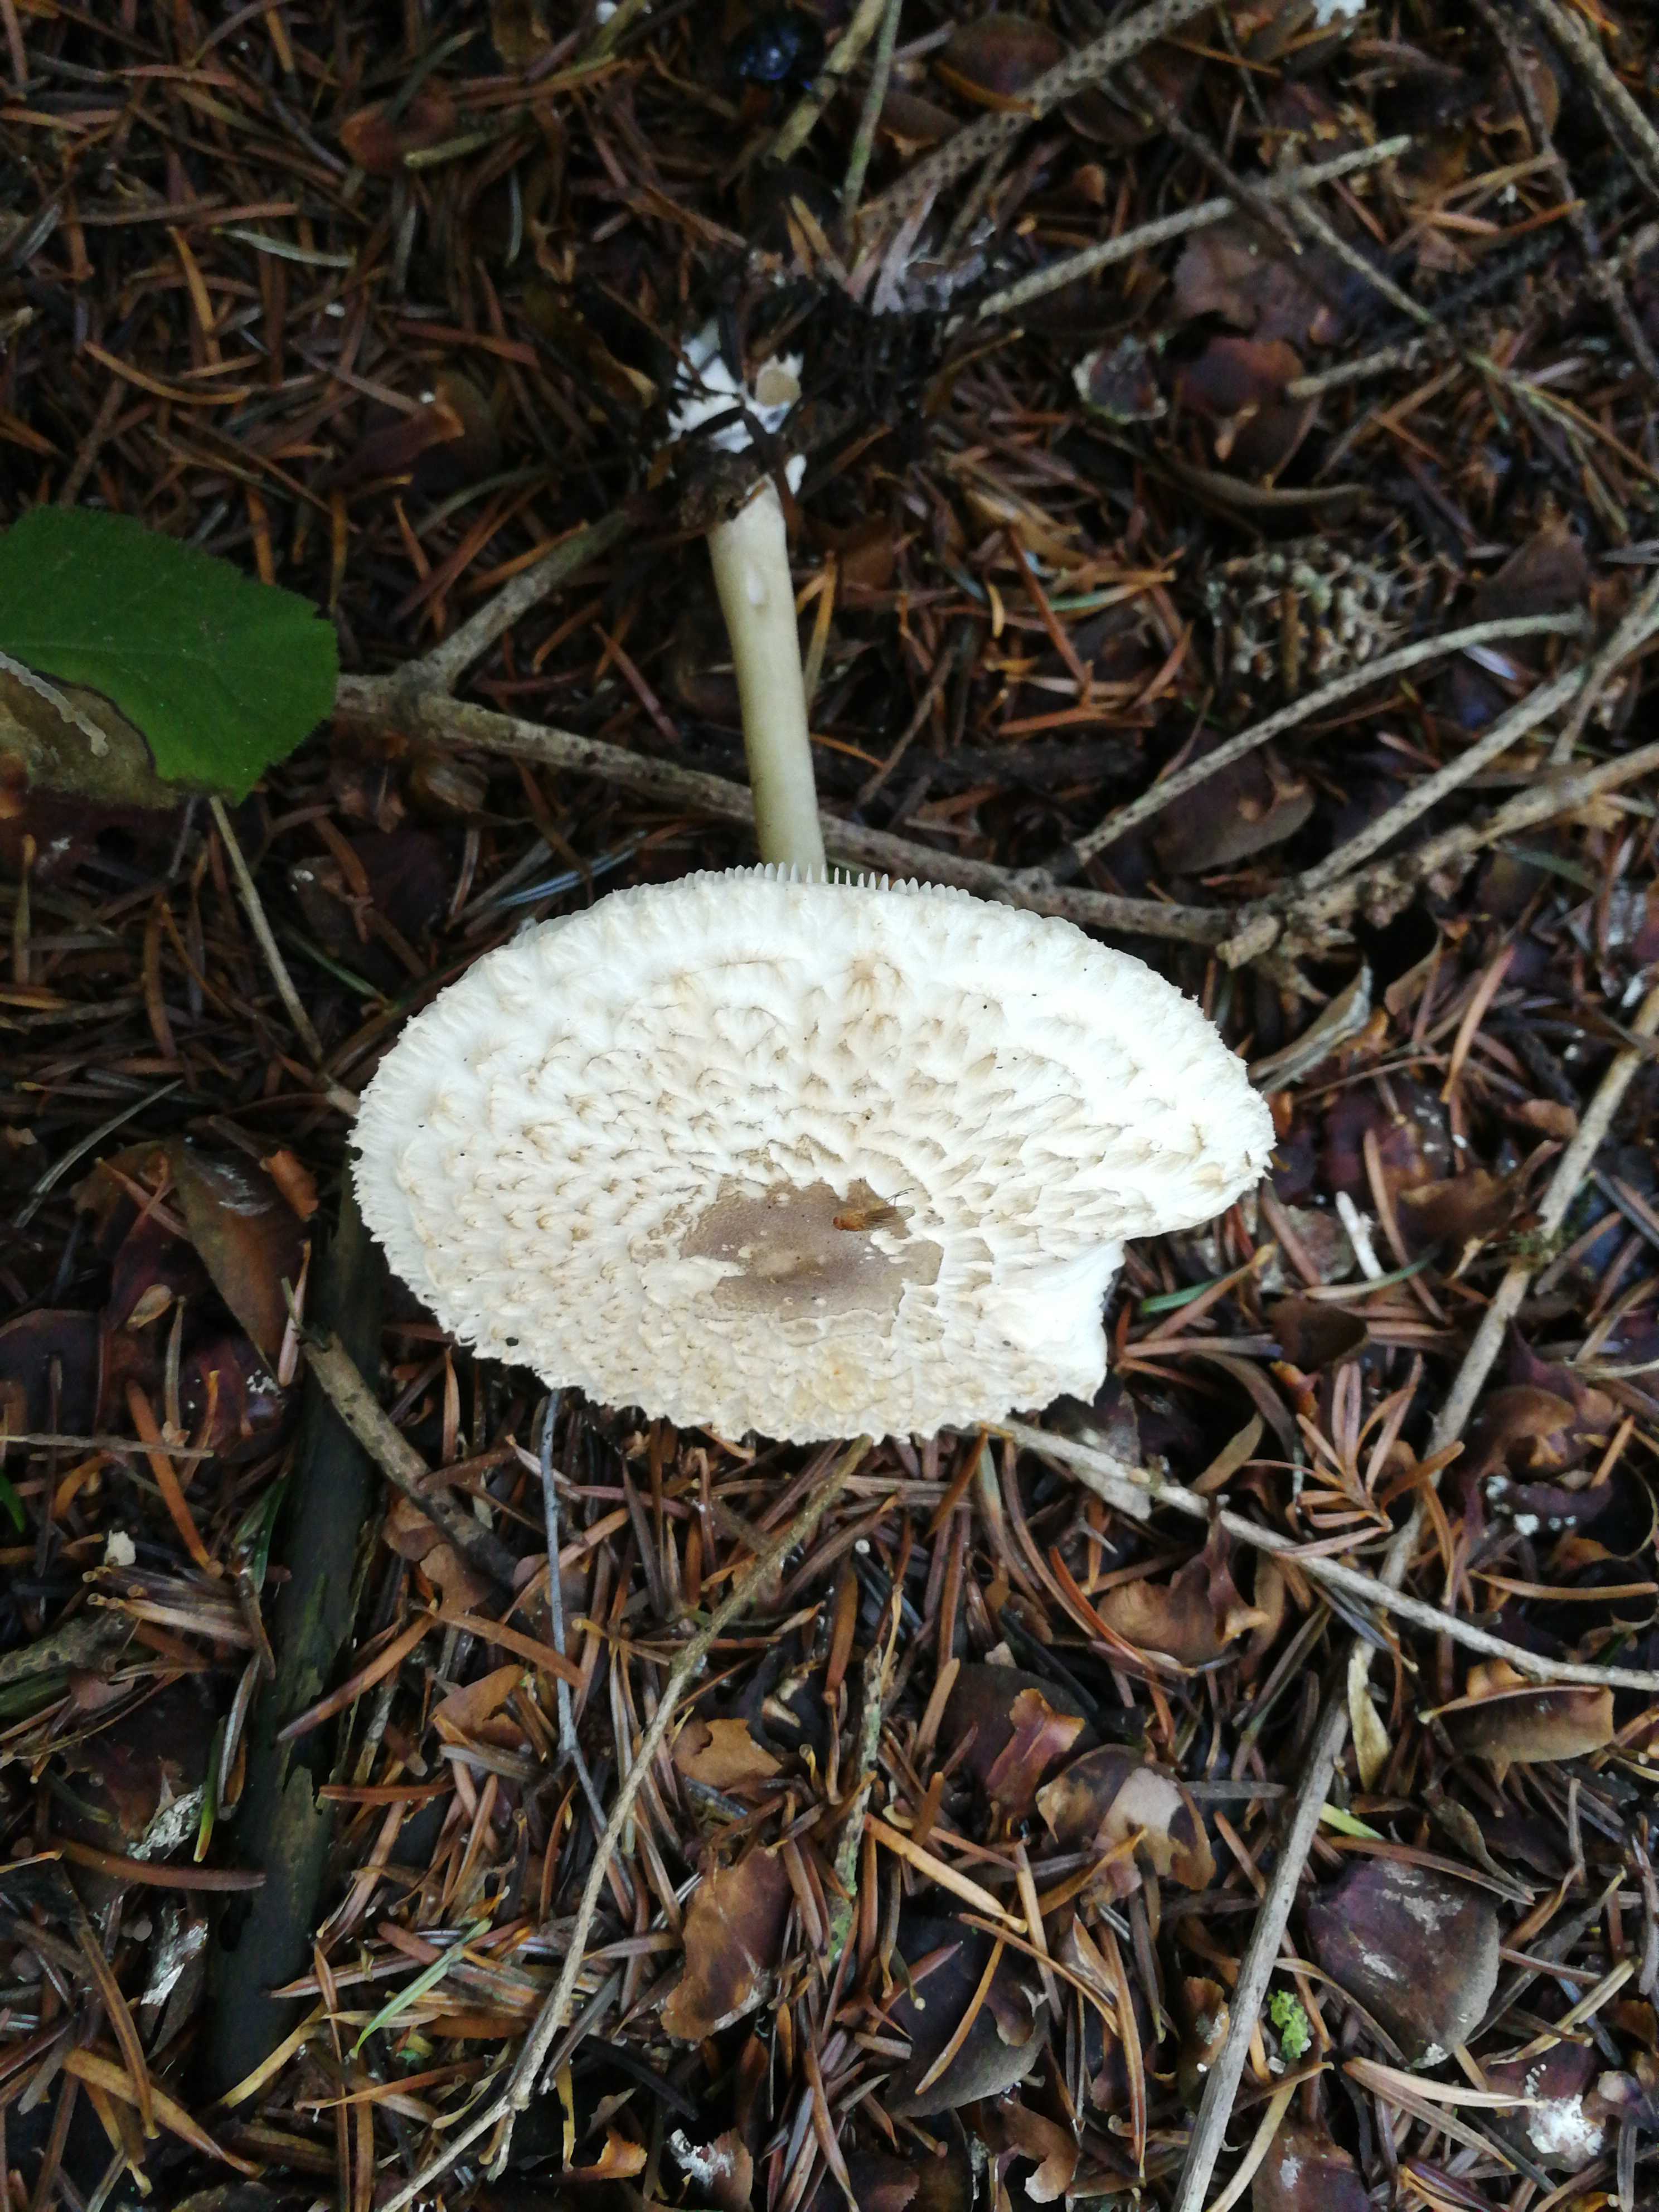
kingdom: Fungi
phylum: Basidiomycota
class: Agaricomycetes
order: Agaricales
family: Agaricaceae
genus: Leucoagaricus
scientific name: Leucoagaricus nympharum
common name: gran-silkehat
